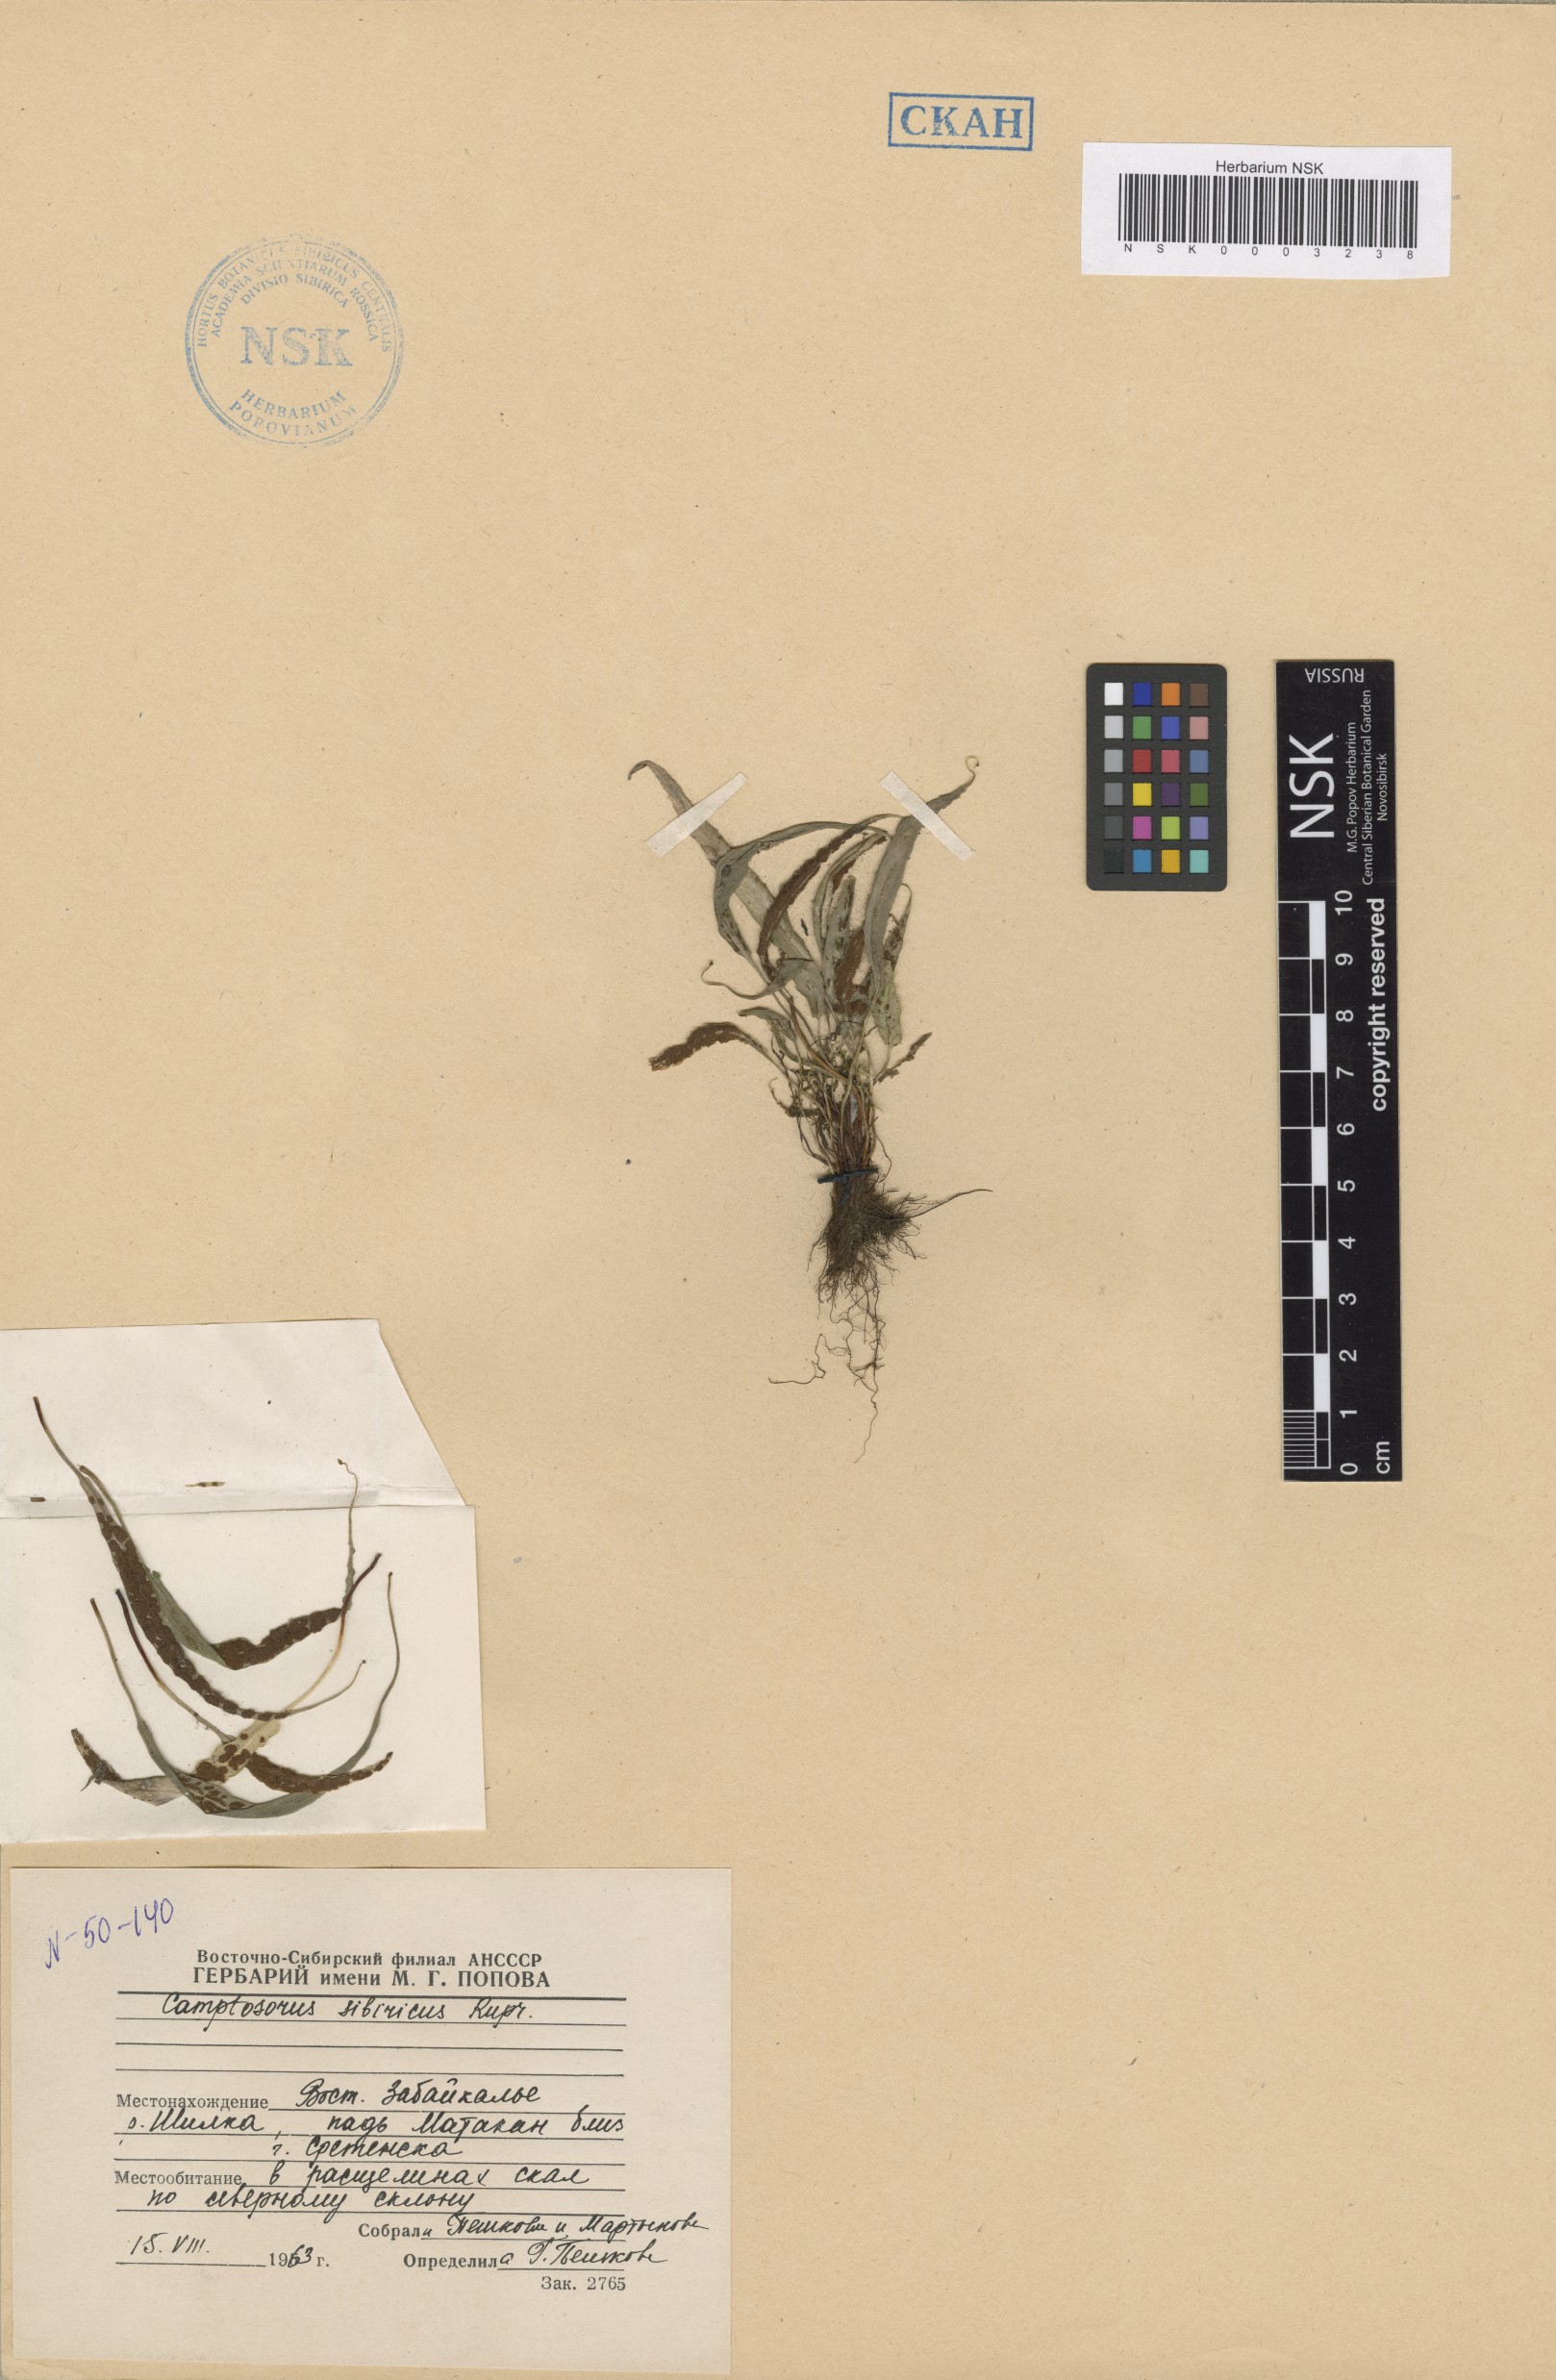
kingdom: Plantae
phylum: Tracheophyta
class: Polypodiopsida
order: Polypodiales
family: Aspleniaceae
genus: Asplenium
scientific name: Asplenium ruprechtii
